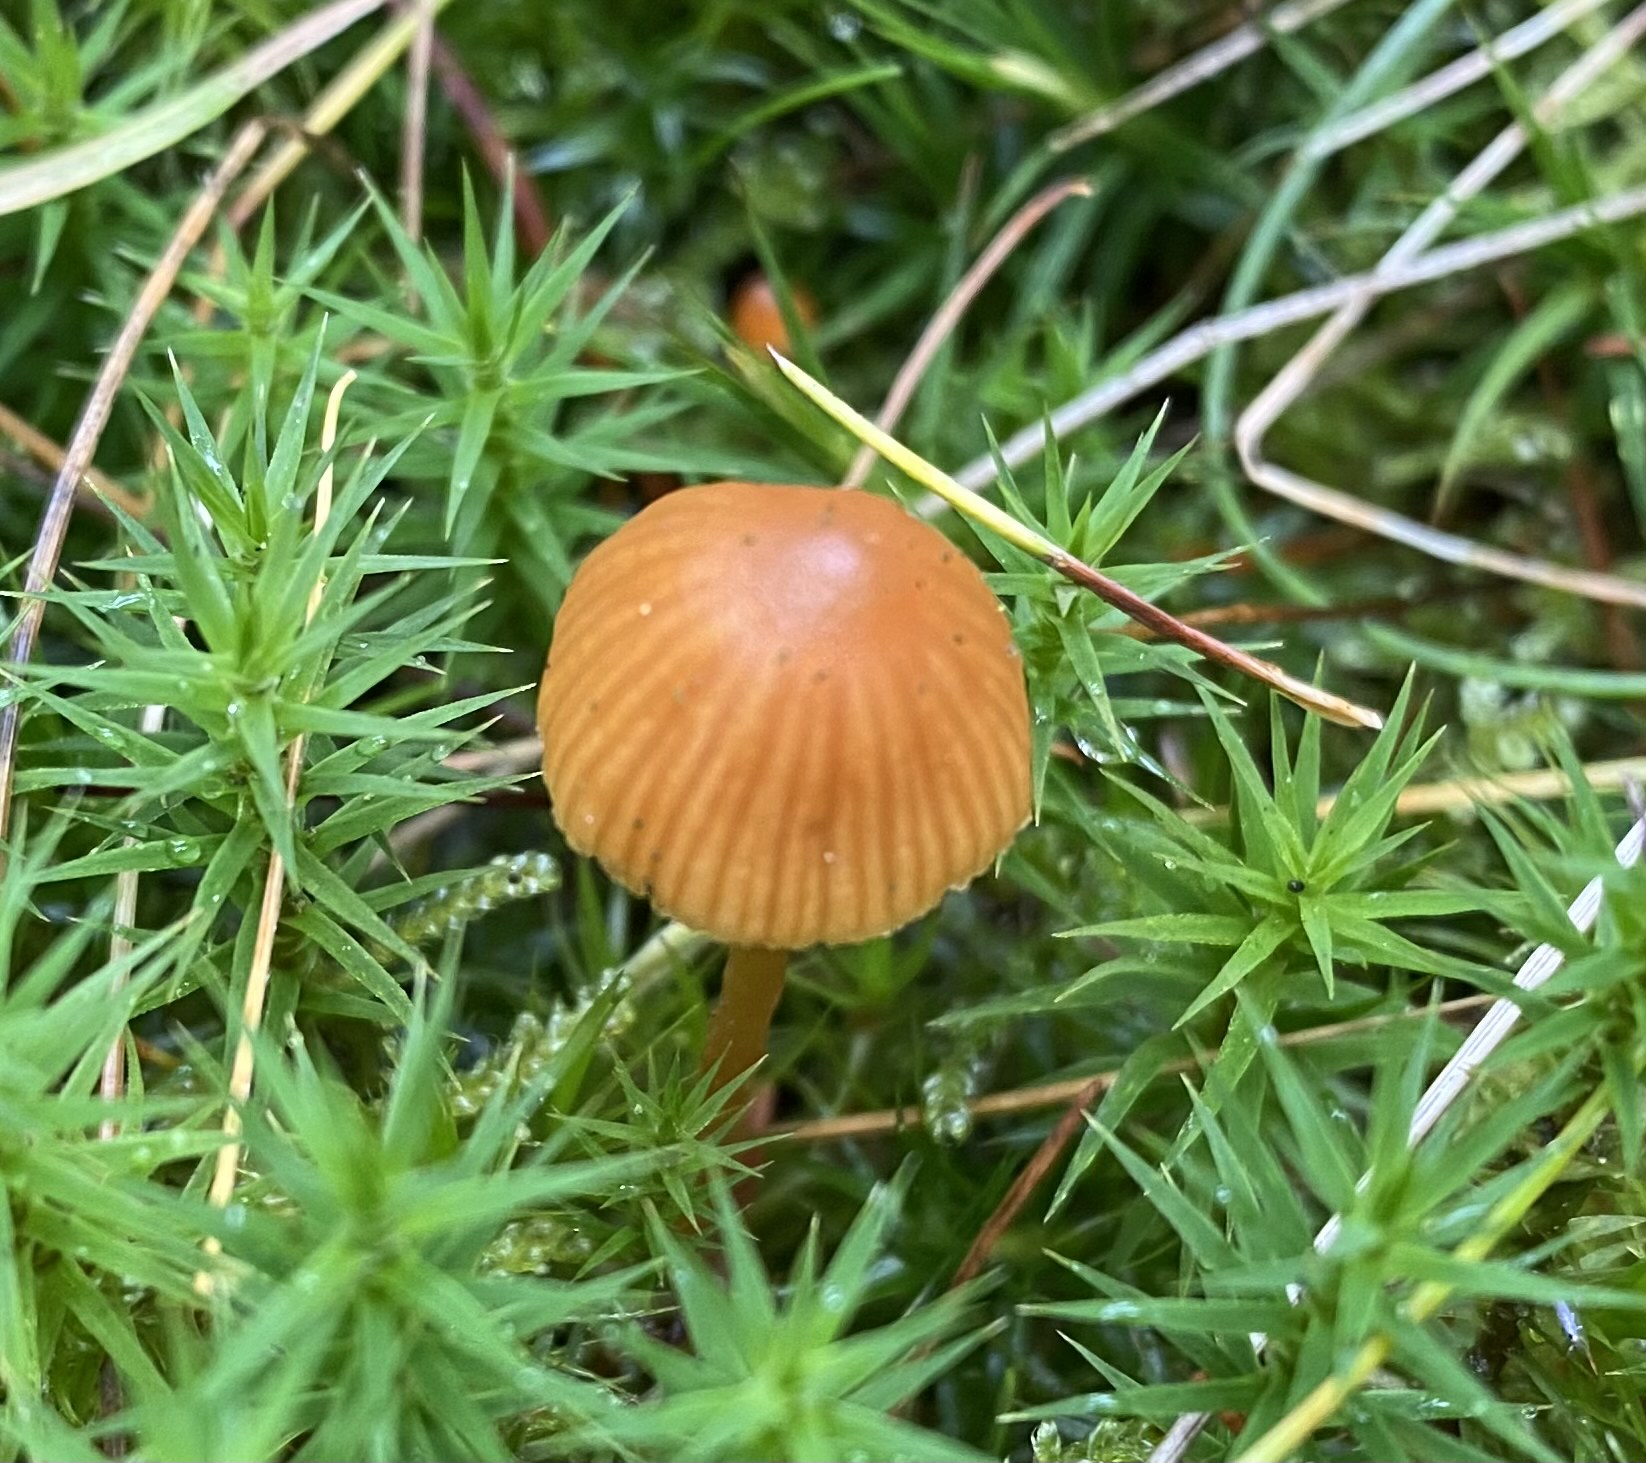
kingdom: Fungi
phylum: Basidiomycota
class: Agaricomycetes
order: Agaricales
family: Hymenogastraceae
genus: Galerina
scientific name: Galerina
